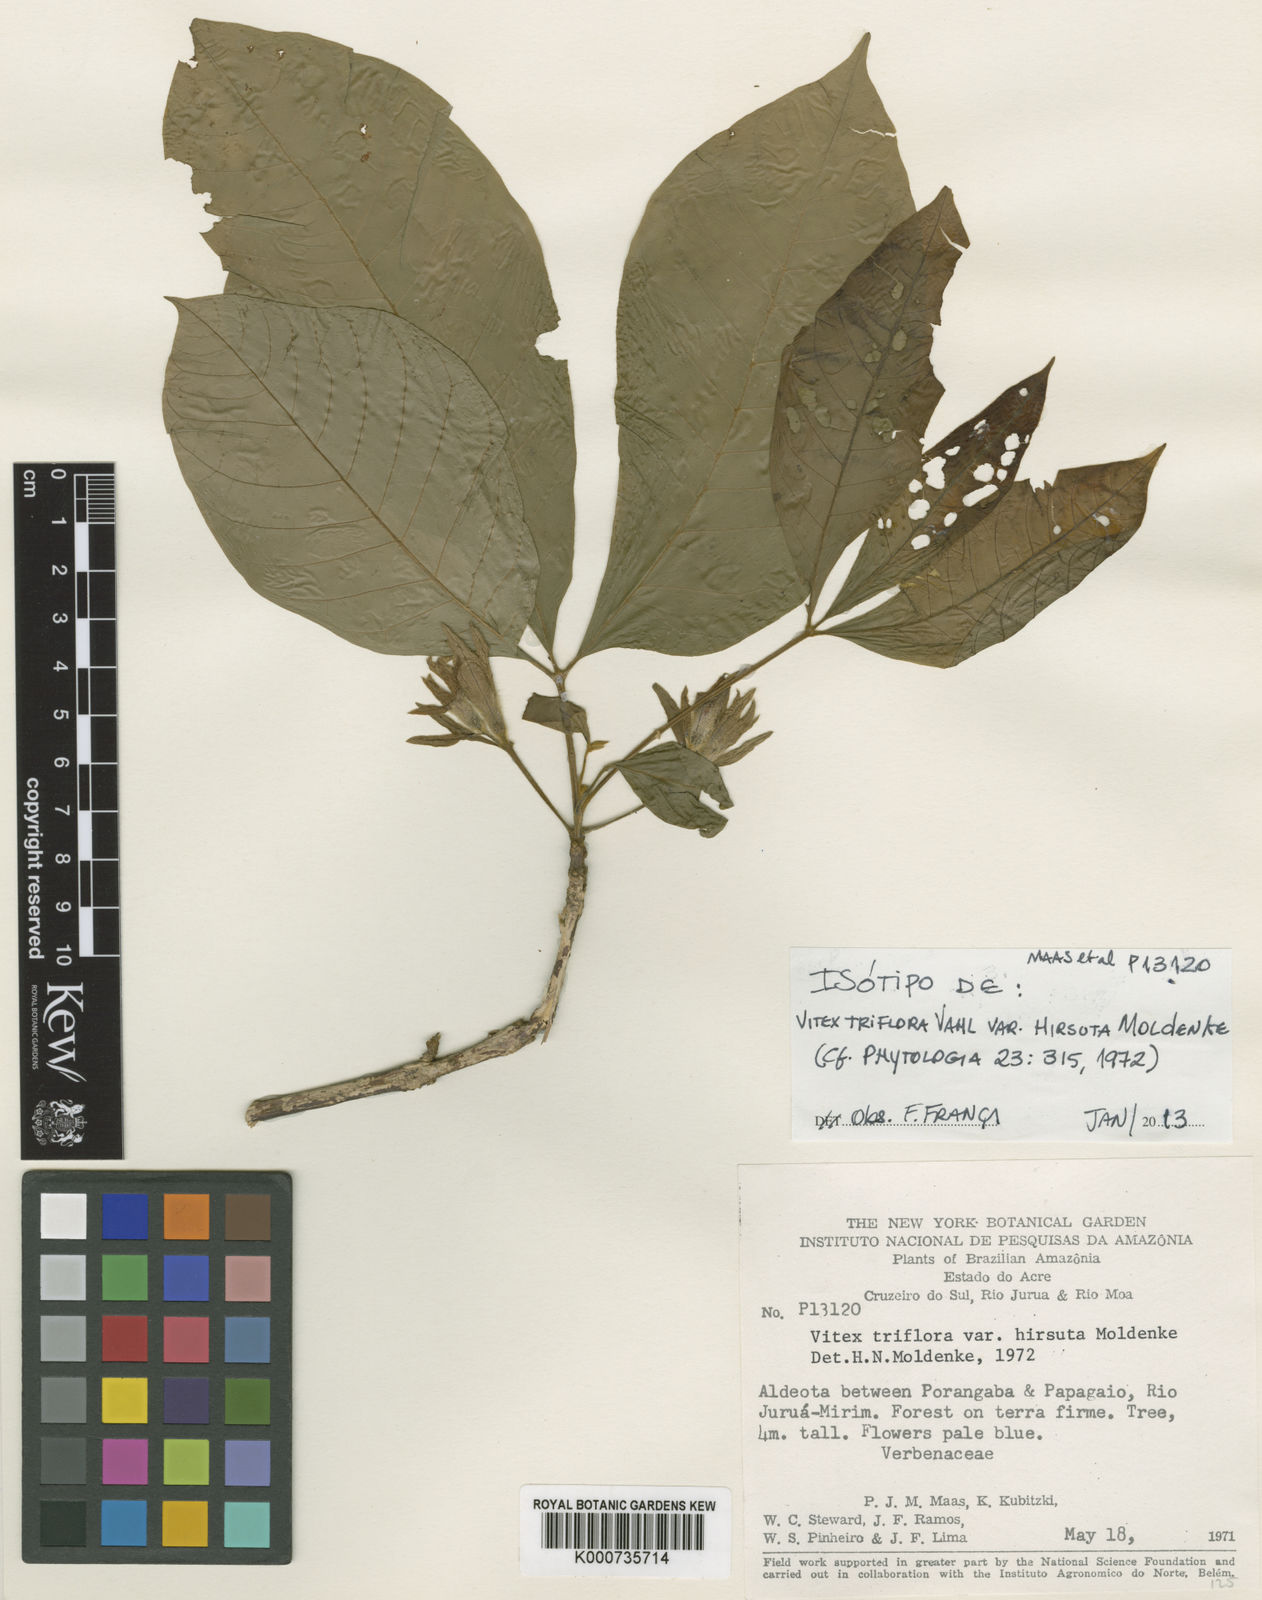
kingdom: Plantae
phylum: Tracheophyta
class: Magnoliopsida
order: Lamiales
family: Lamiaceae
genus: Vitex
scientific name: Vitex triflora
